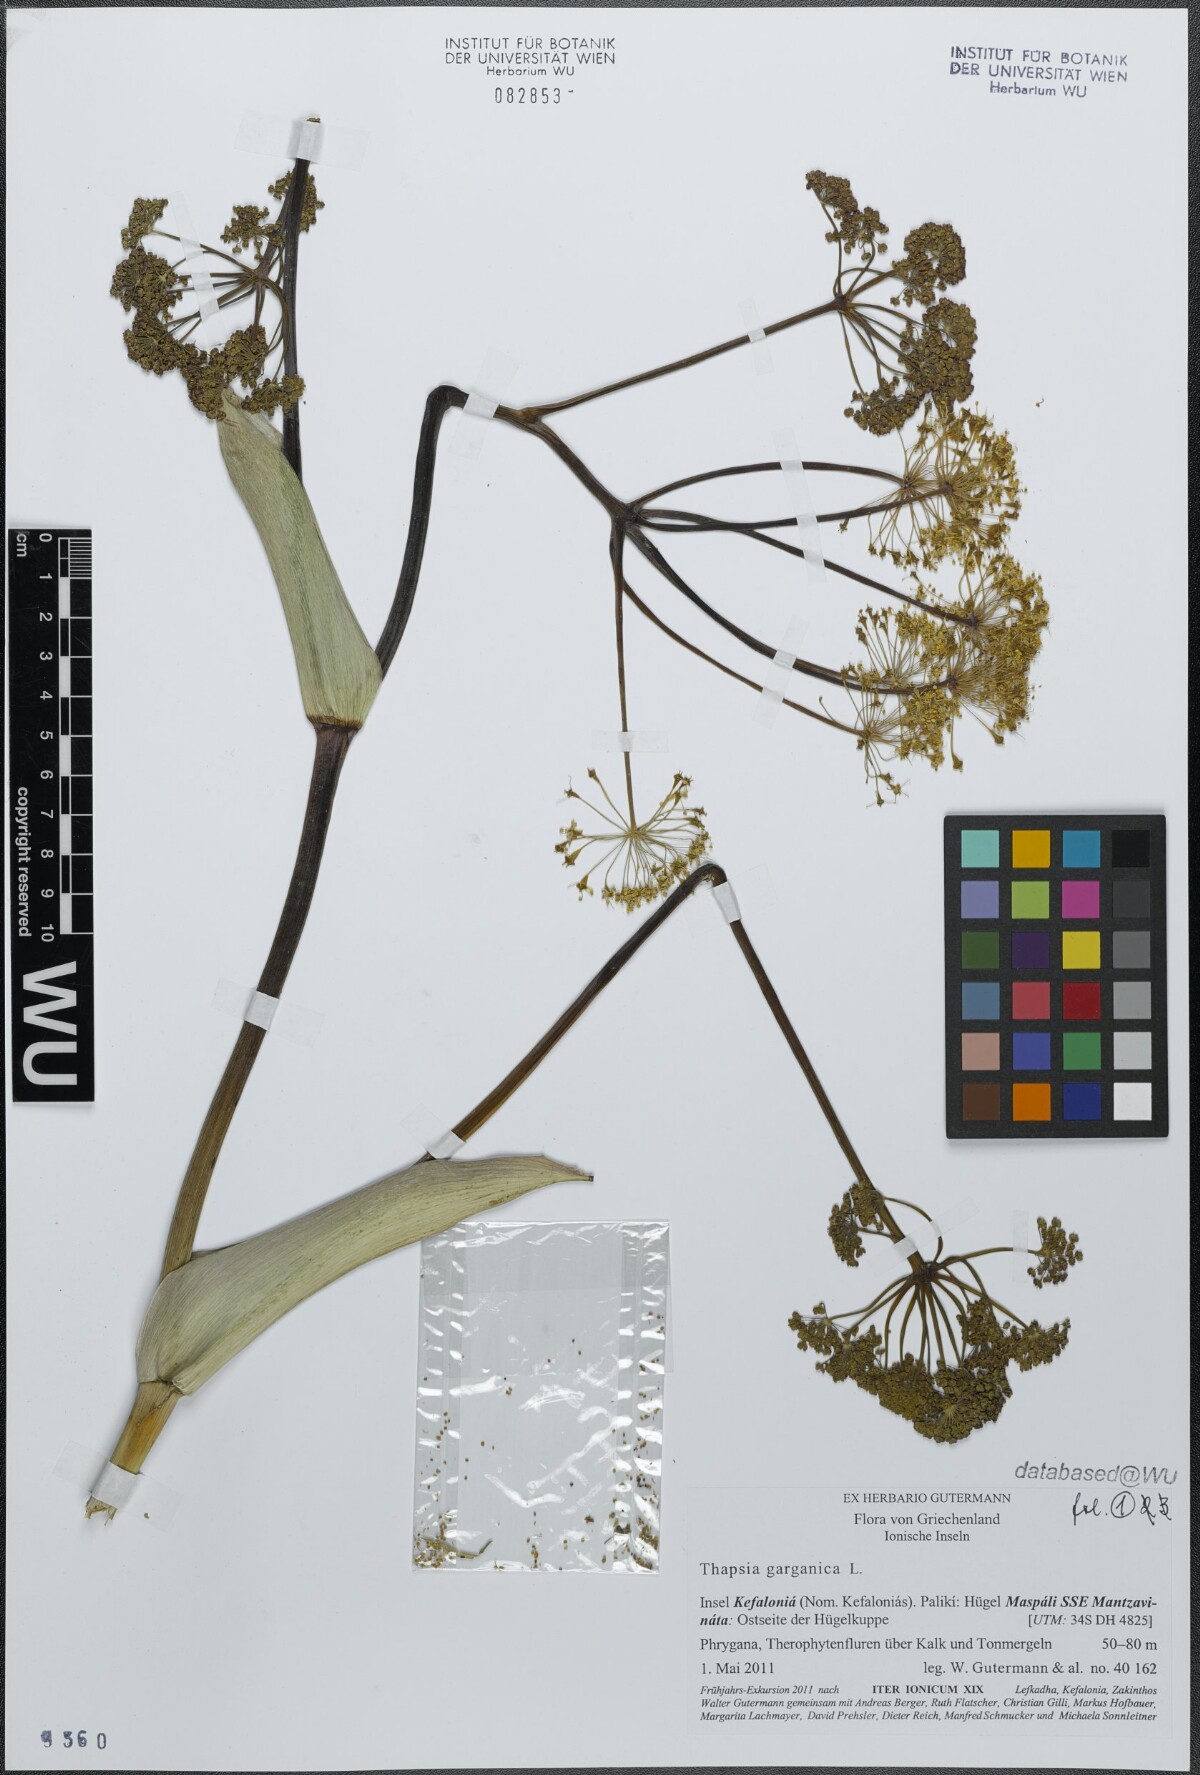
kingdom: Plantae
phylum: Tracheophyta
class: Magnoliopsida
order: Apiales
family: Apiaceae
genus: Thapsia
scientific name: Thapsia garganica
